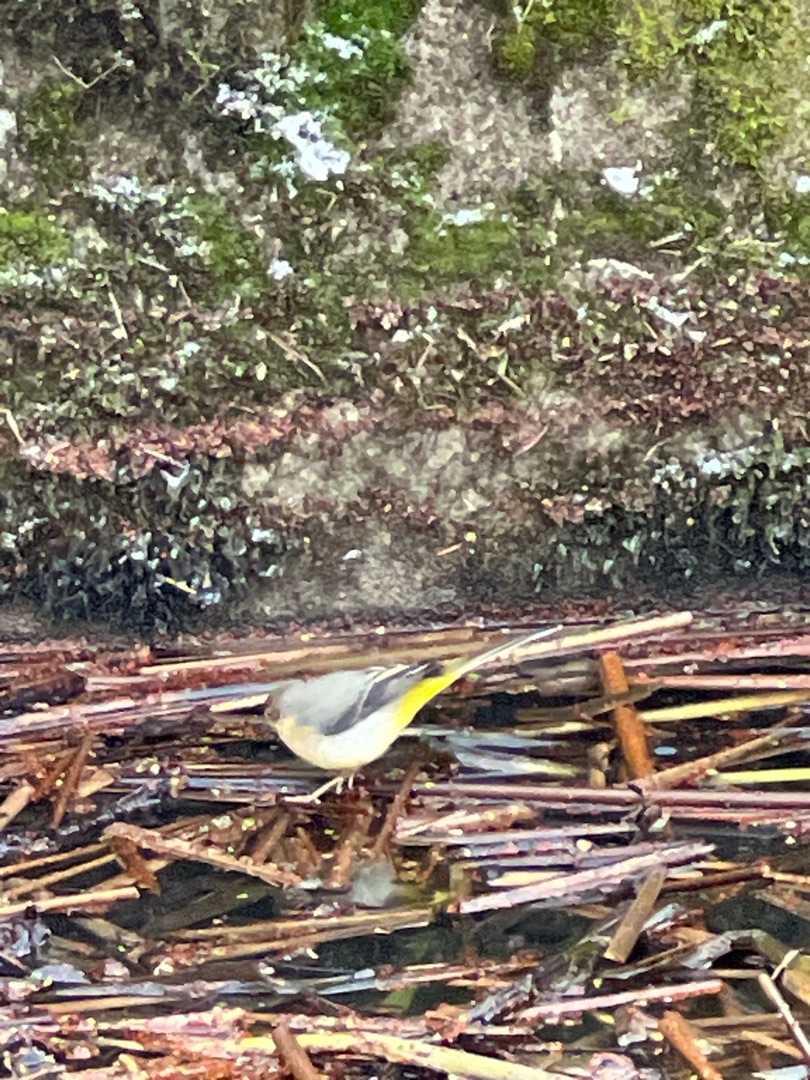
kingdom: Animalia
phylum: Chordata
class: Aves
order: Passeriformes
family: Motacillidae
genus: Motacilla
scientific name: Motacilla cinerea
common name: Bjergvipstjert
